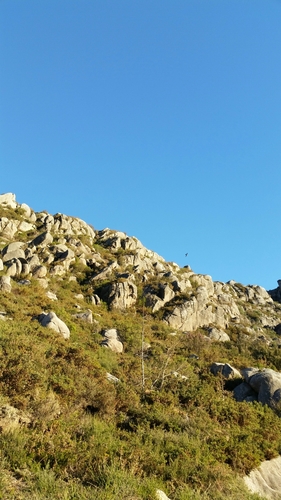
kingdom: Animalia
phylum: Chordata
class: Aves
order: Passeriformes
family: Hirundinidae
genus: Ptyonoprogne
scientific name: Ptyonoprogne rupestris
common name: Eurasian crag martin
